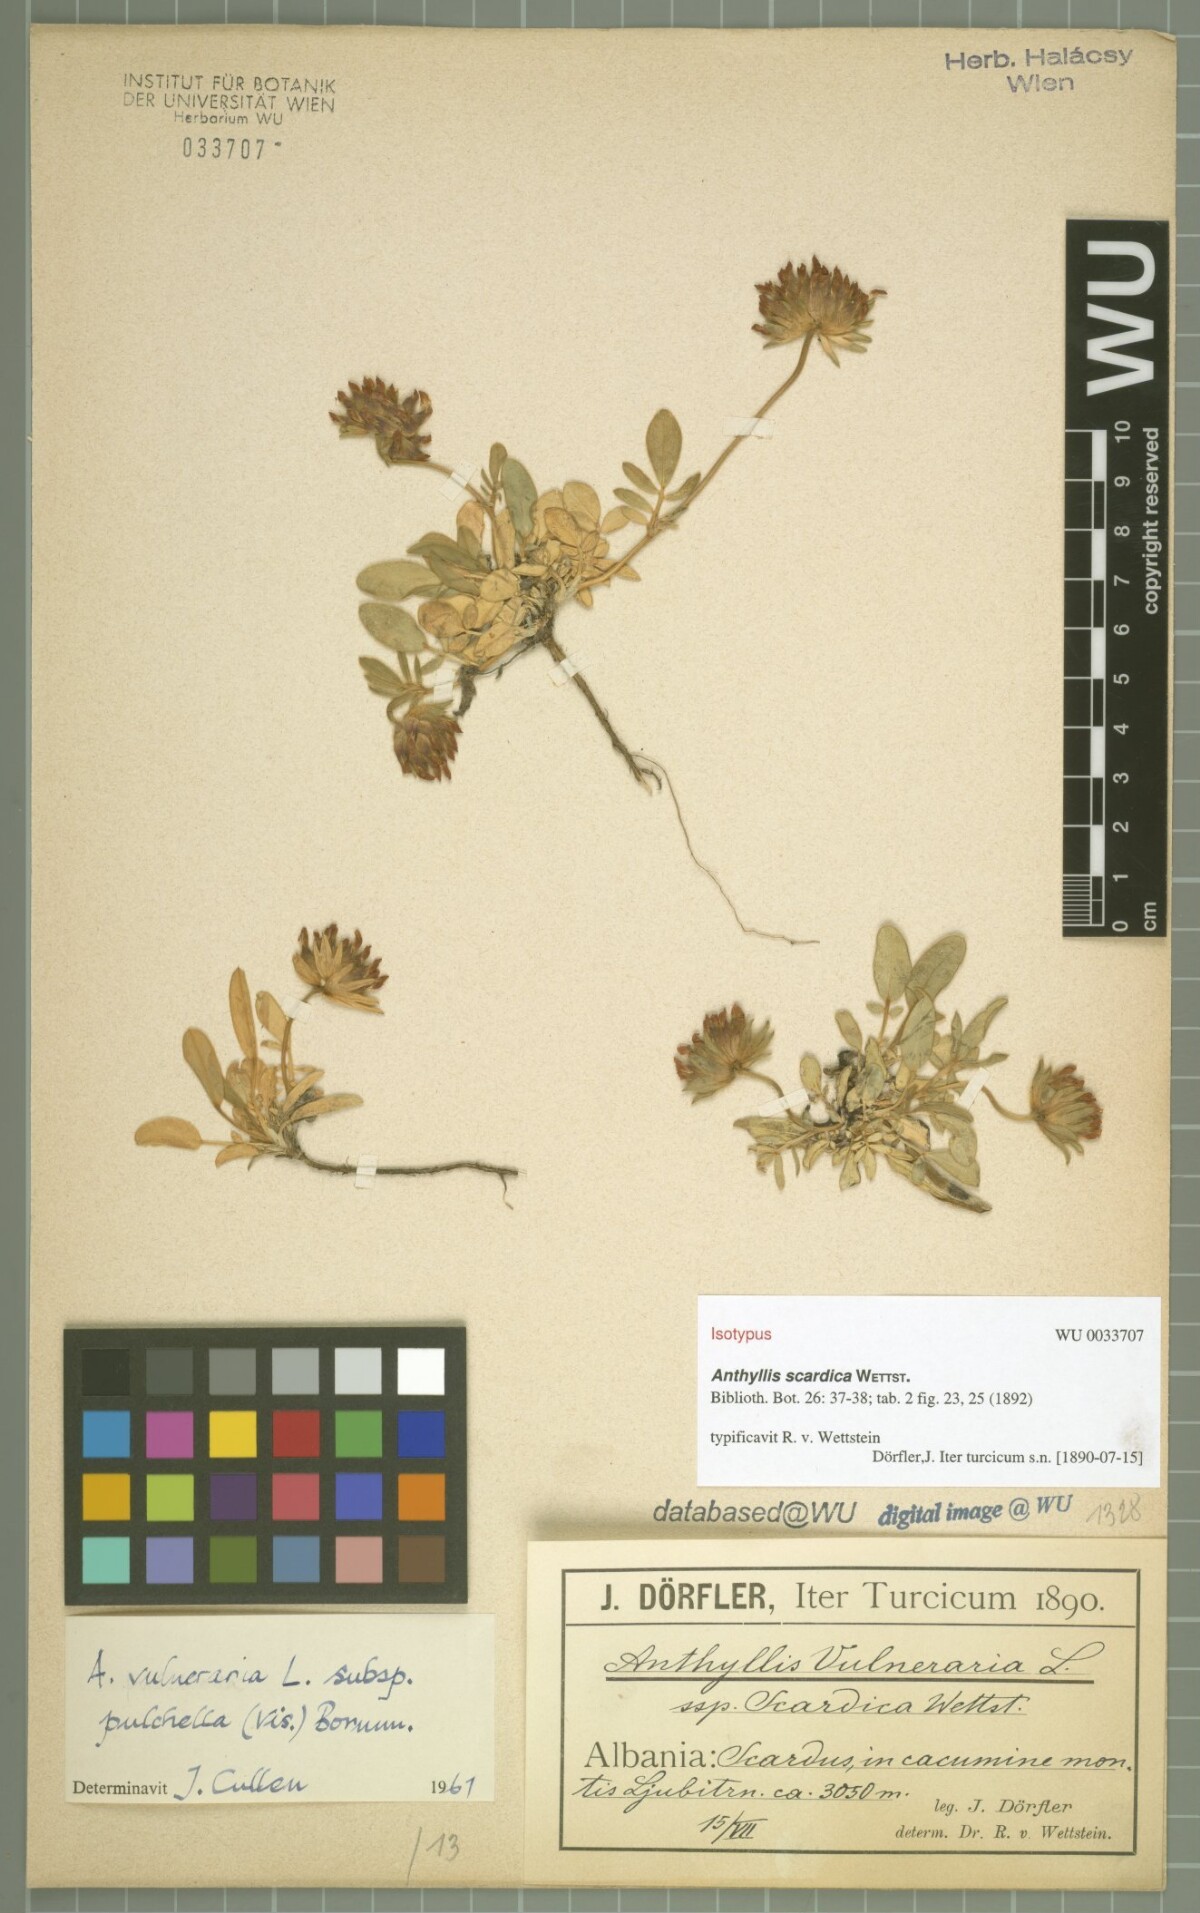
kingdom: Plantae
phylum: Tracheophyta
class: Magnoliopsida
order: Fabales
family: Fabaceae
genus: Anthyllis
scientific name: Anthyllis vulneraria
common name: Kidney vetch
